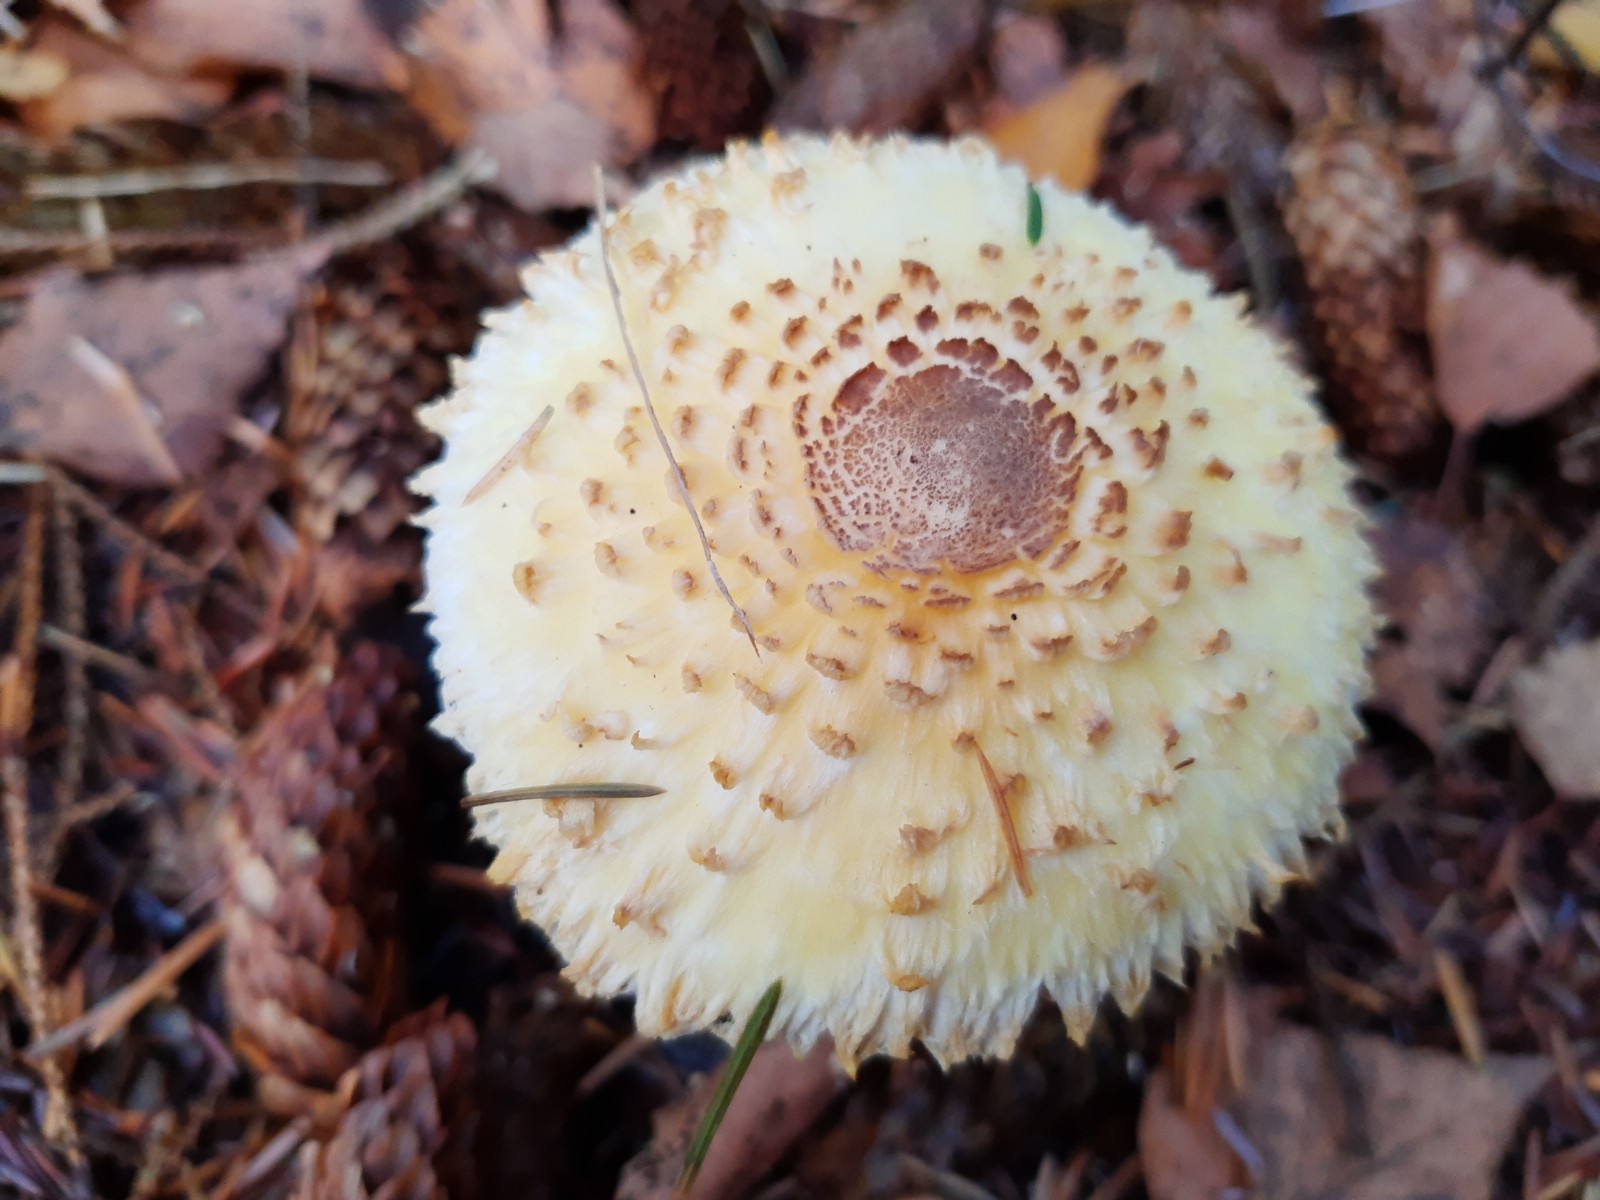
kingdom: Fungi
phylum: Basidiomycota
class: Agaricomycetes
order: Agaricales
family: Agaricaceae
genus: Leucoagaricus
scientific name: Leucoagaricus nympharum
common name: gran-silkehat
